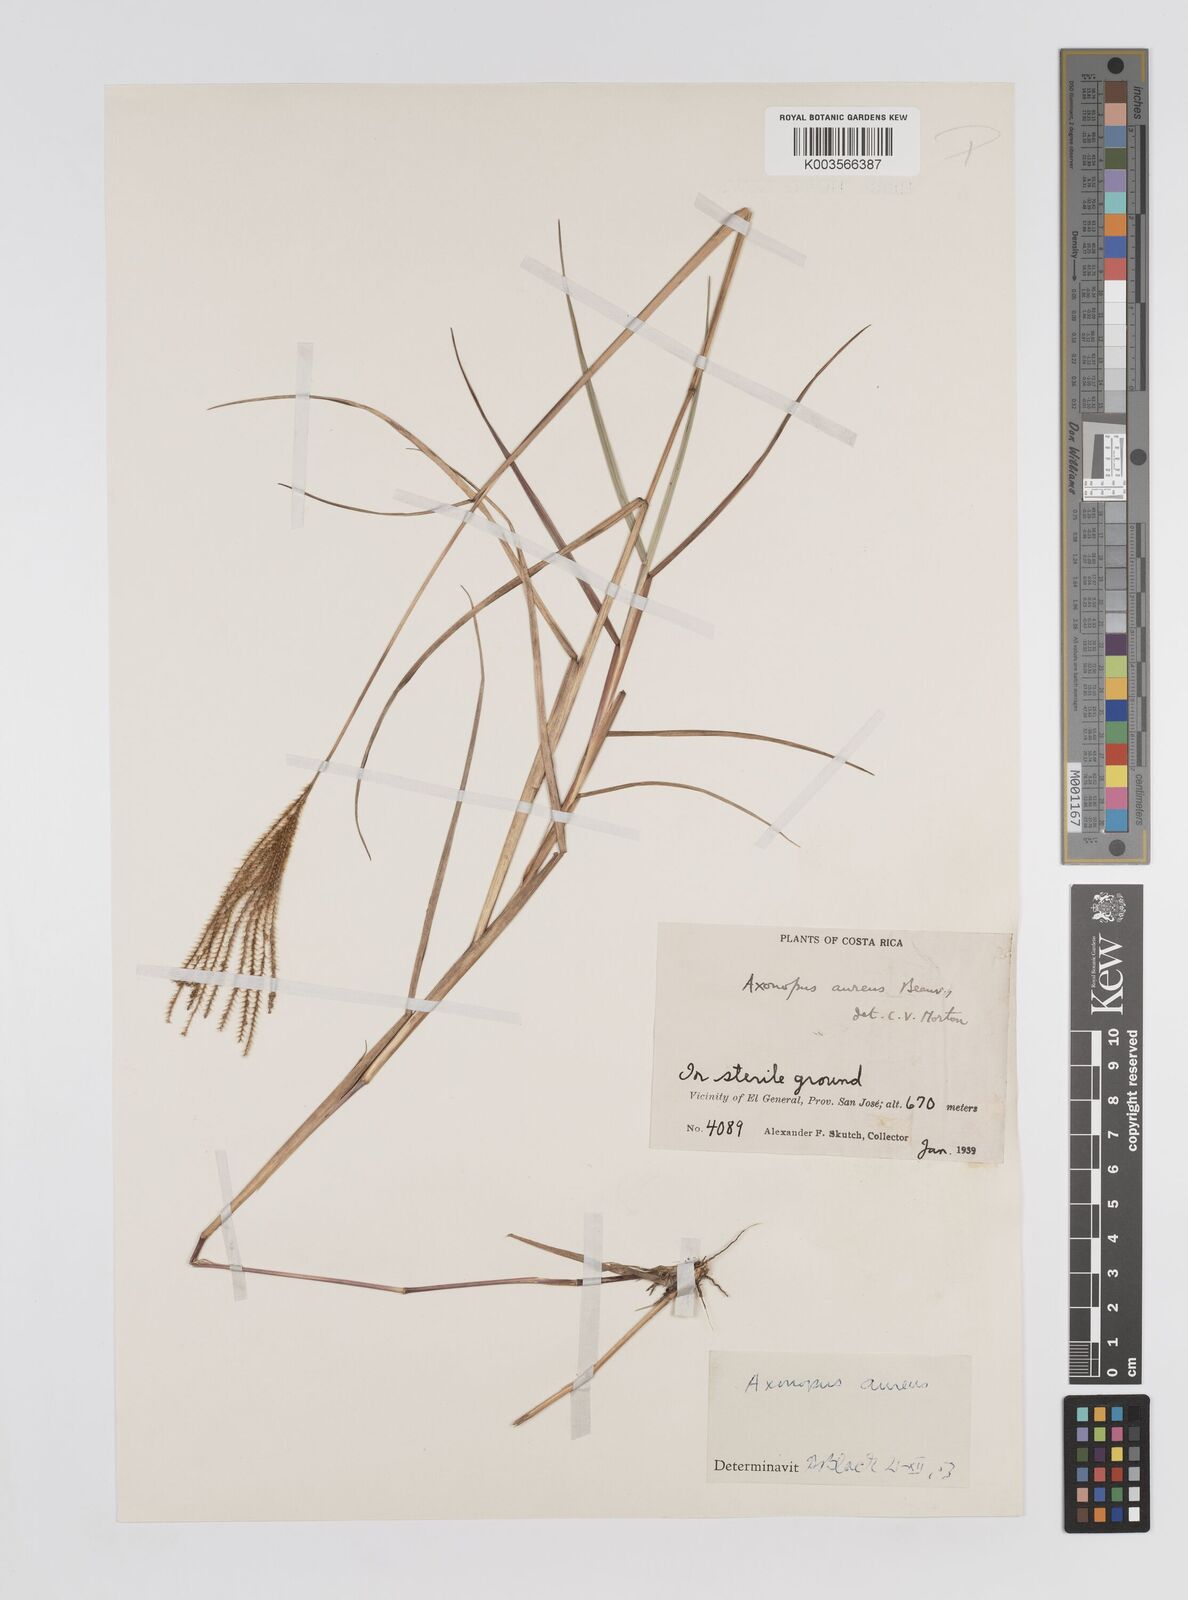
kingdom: Plantae
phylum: Tracheophyta
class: Liliopsida
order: Poales
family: Poaceae
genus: Axonopus
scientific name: Axonopus aureus
